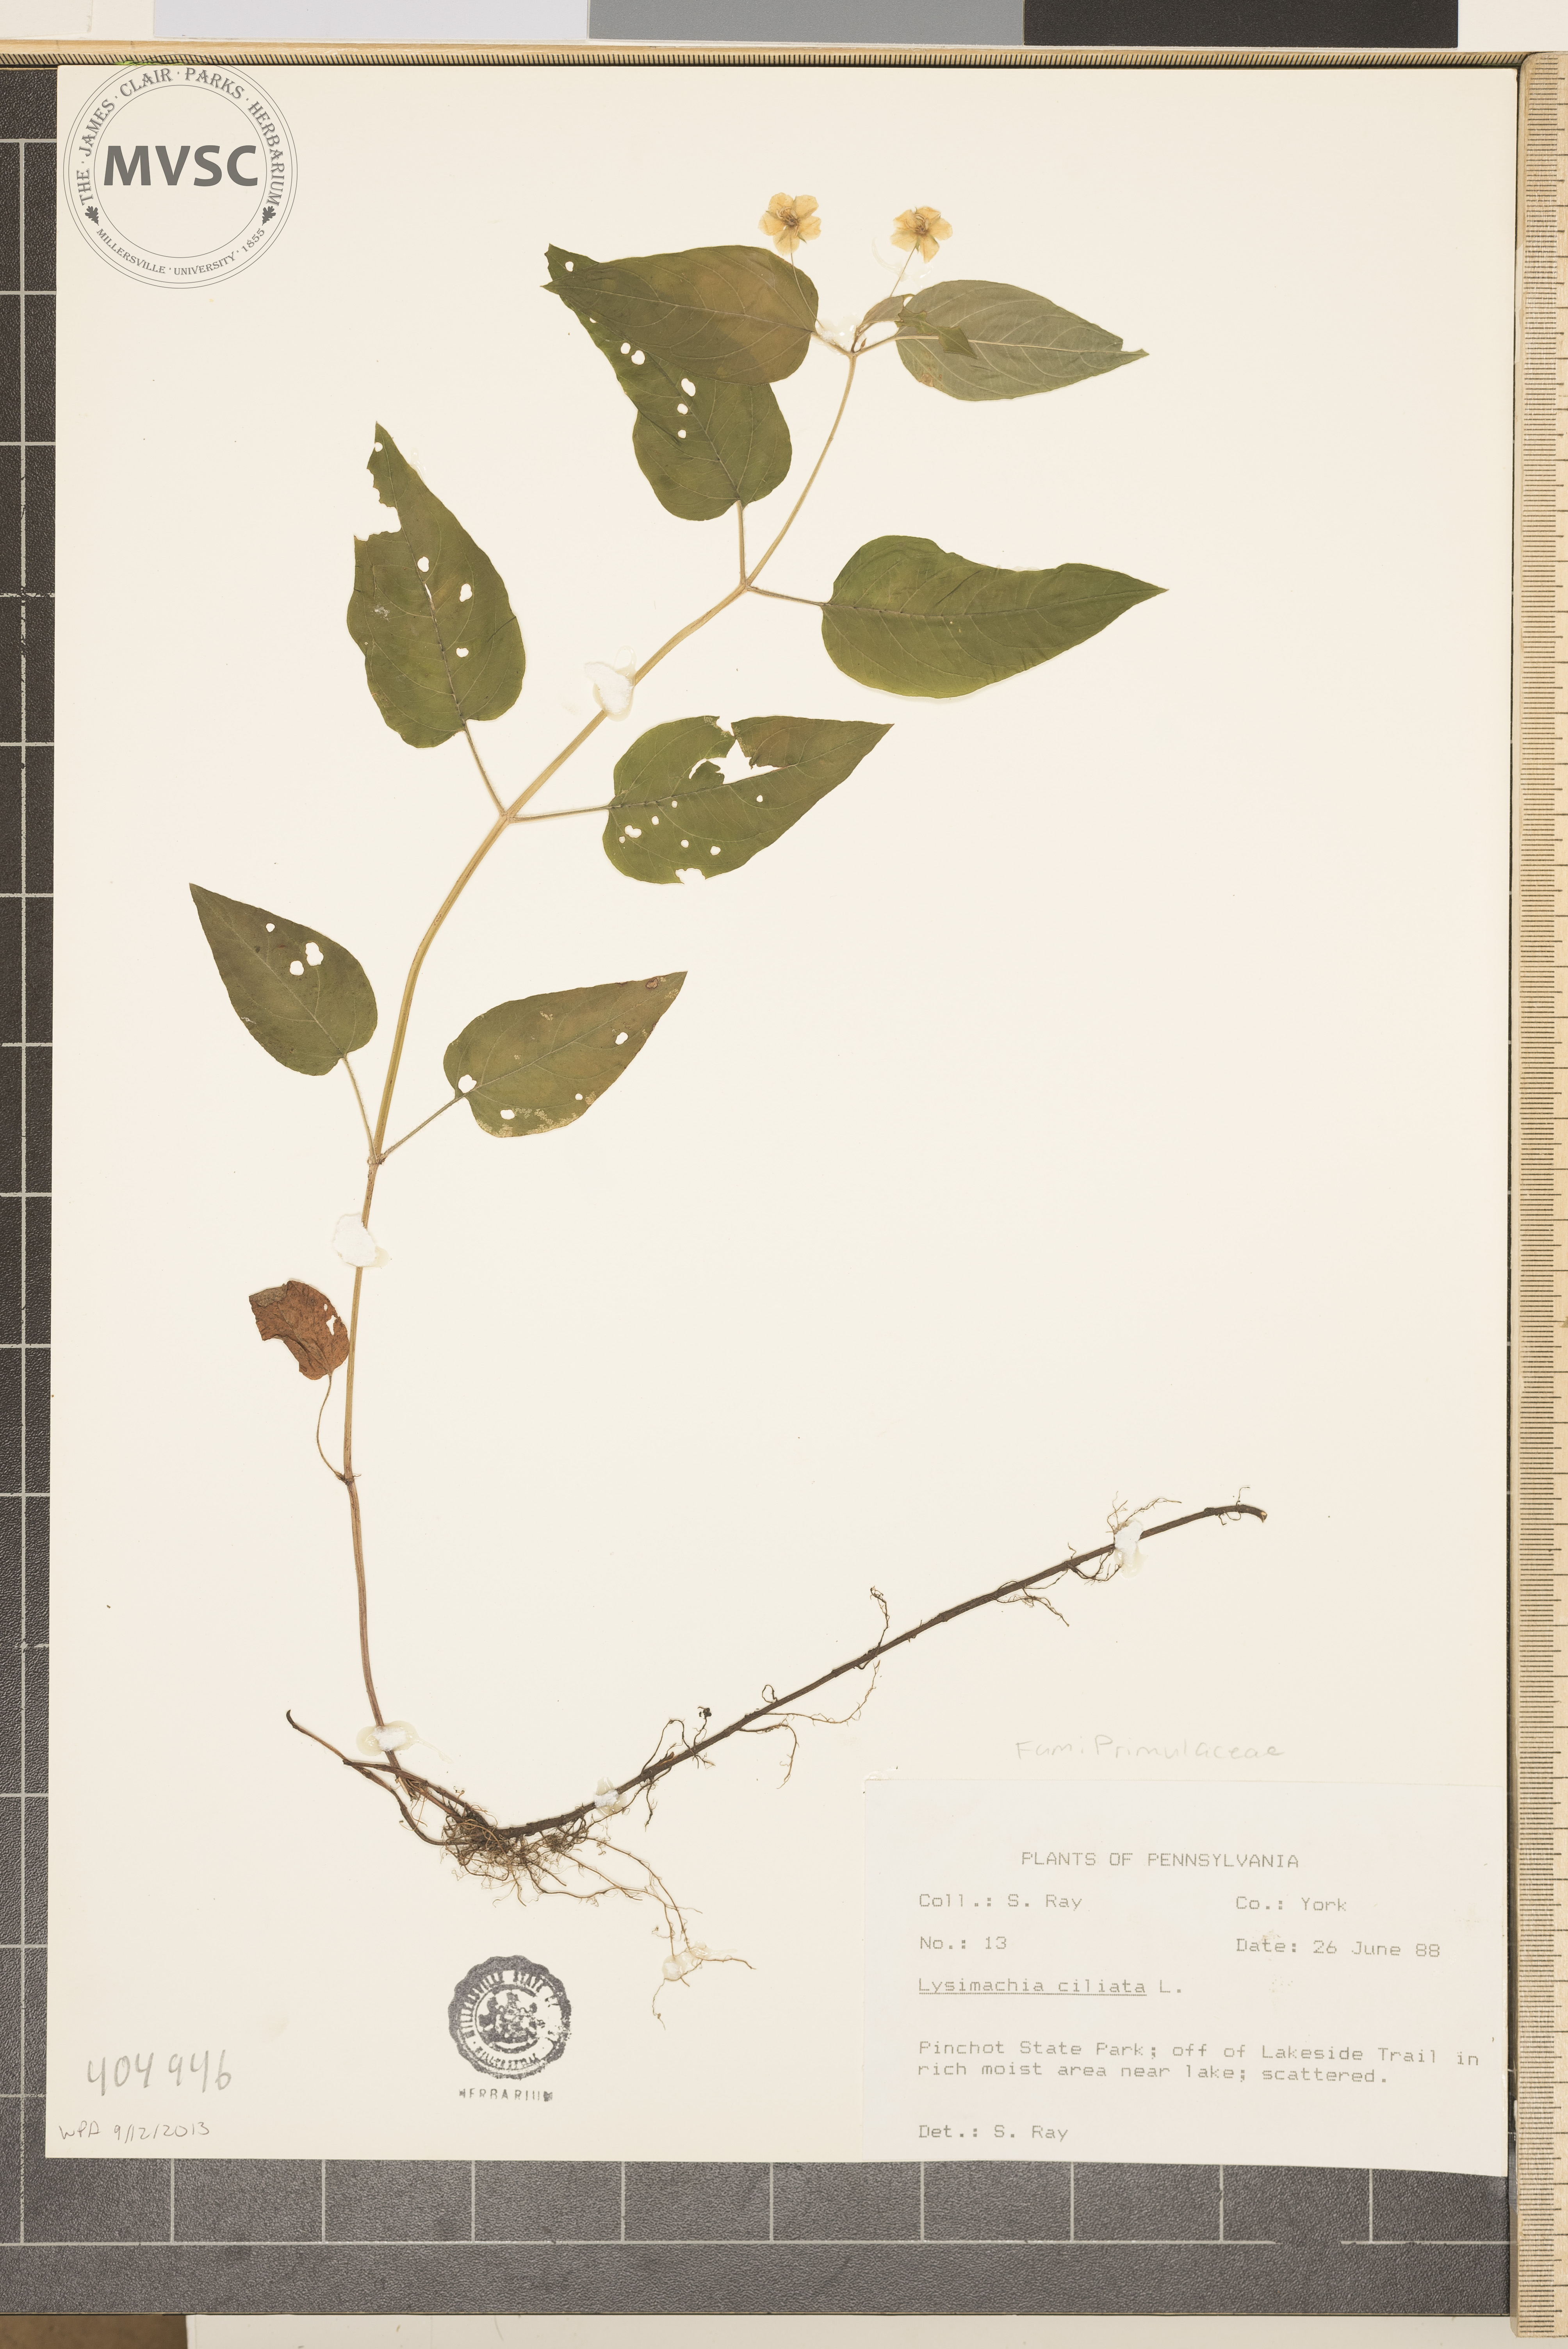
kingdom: Plantae
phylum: Tracheophyta
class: Magnoliopsida
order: Ericales
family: Primulaceae
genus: Lysimachia
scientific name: Lysimachia ciliata
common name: Fringed loosestrife
